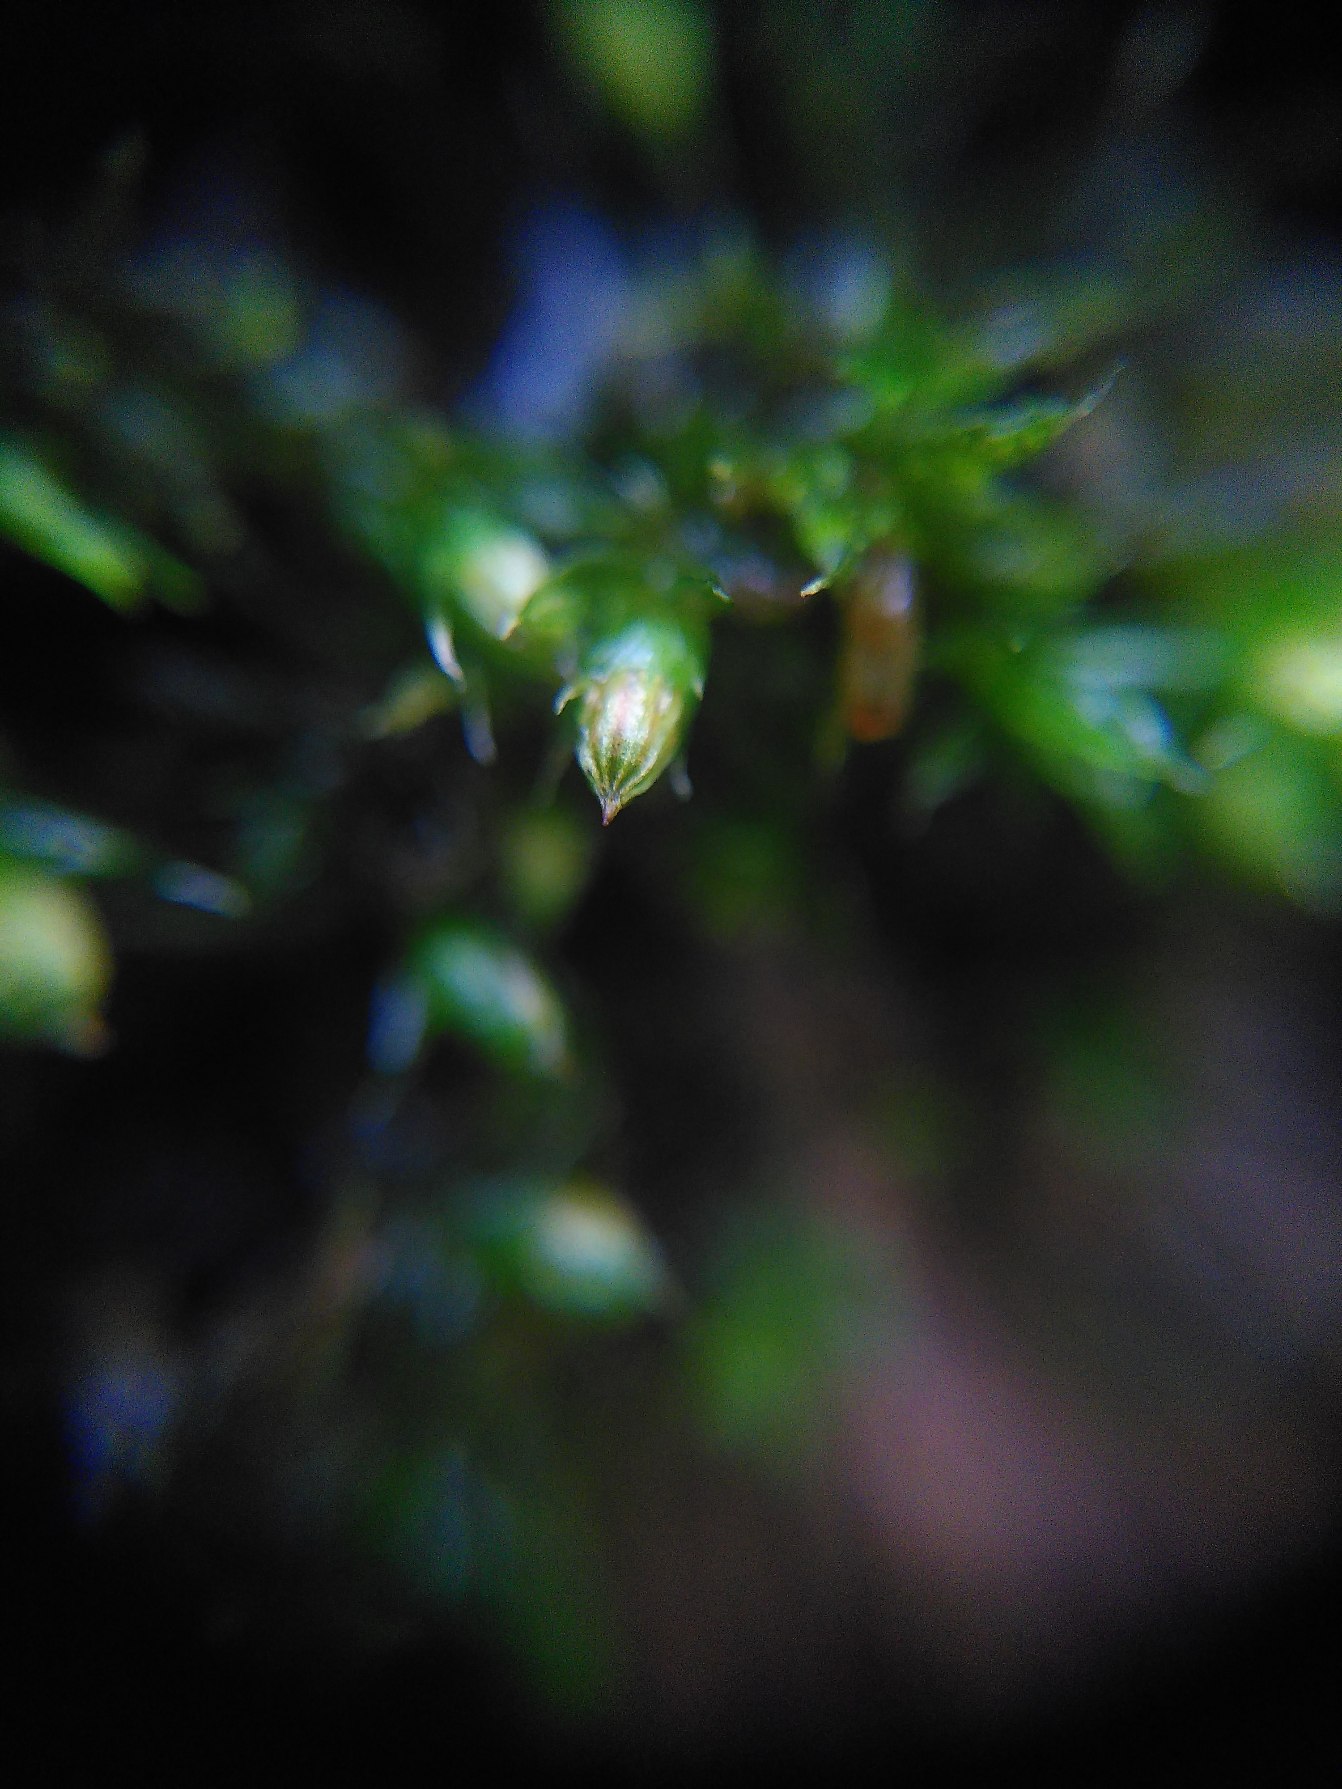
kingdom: Plantae
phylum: Bryophyta
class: Bryopsida
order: Orthotrichales
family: Orthotrichaceae
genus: Orthotrichum
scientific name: Orthotrichum diaphanum
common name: Hårspidset furehætte
